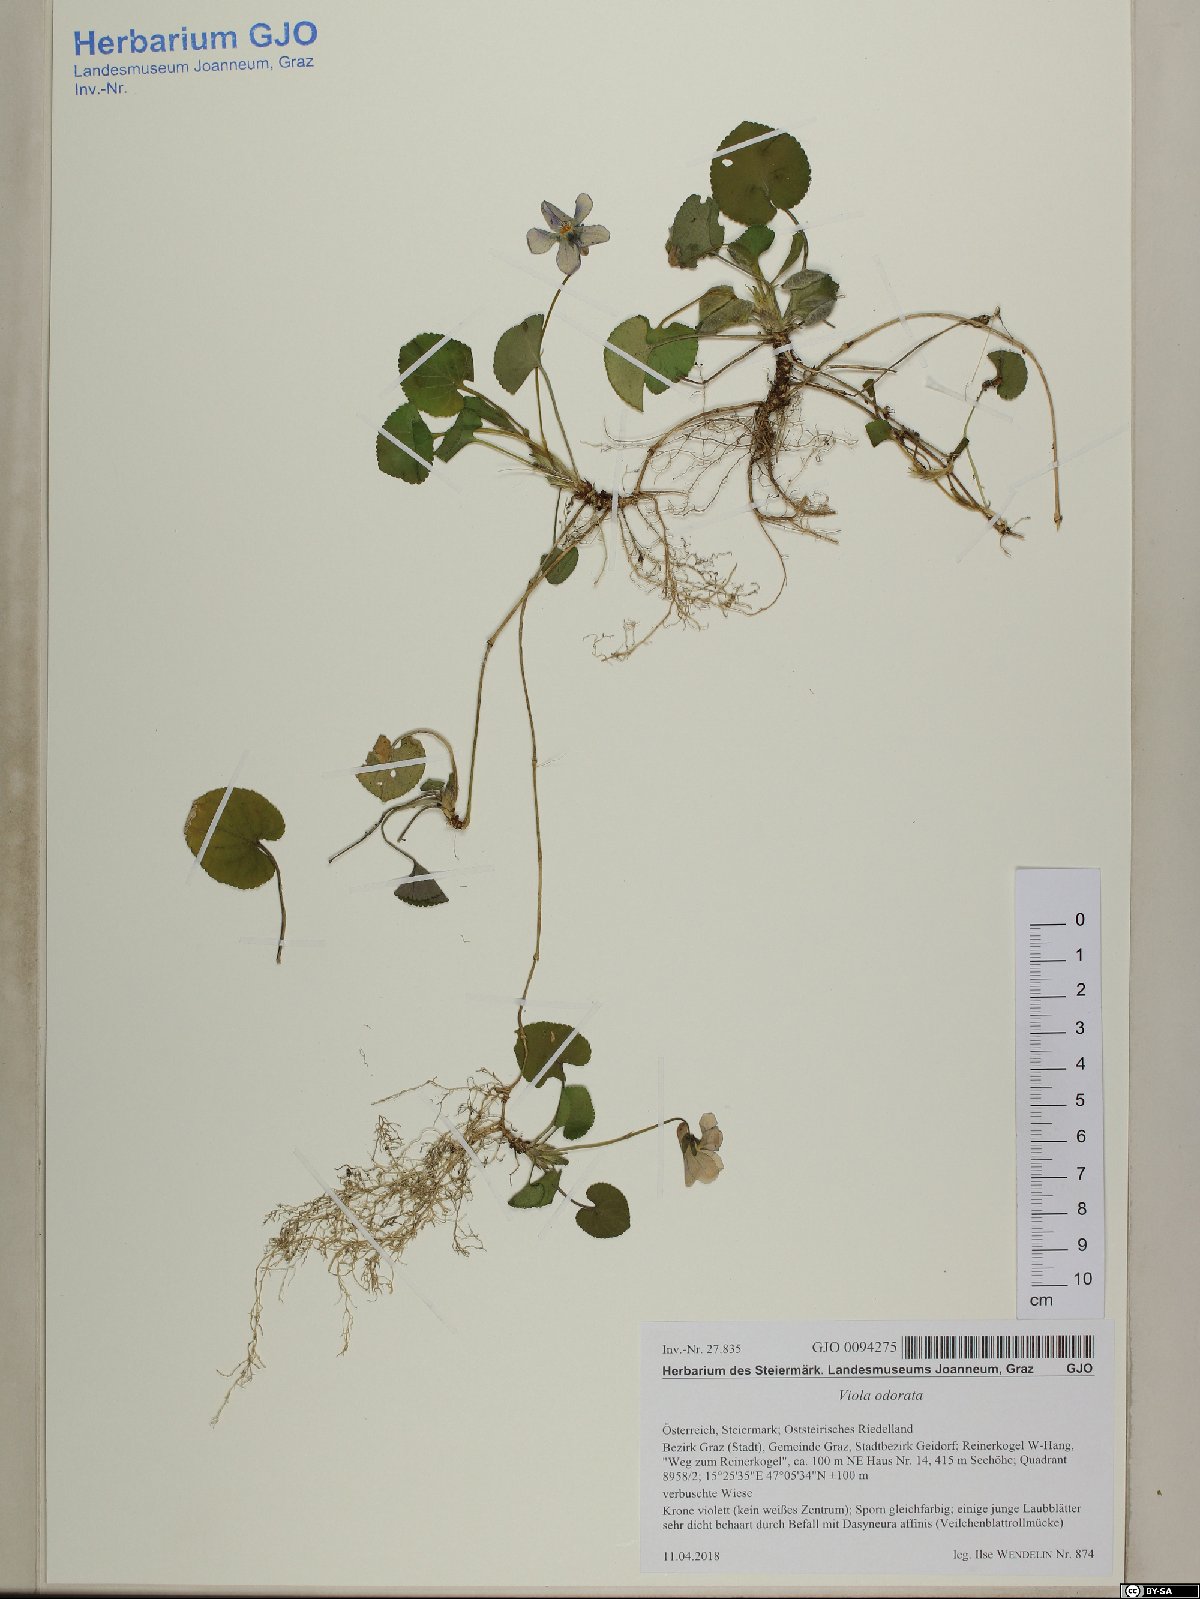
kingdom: Plantae
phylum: Tracheophyta
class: Magnoliopsida
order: Malpighiales
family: Violaceae
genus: Viola
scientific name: Viola odorata
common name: Sweet violet
